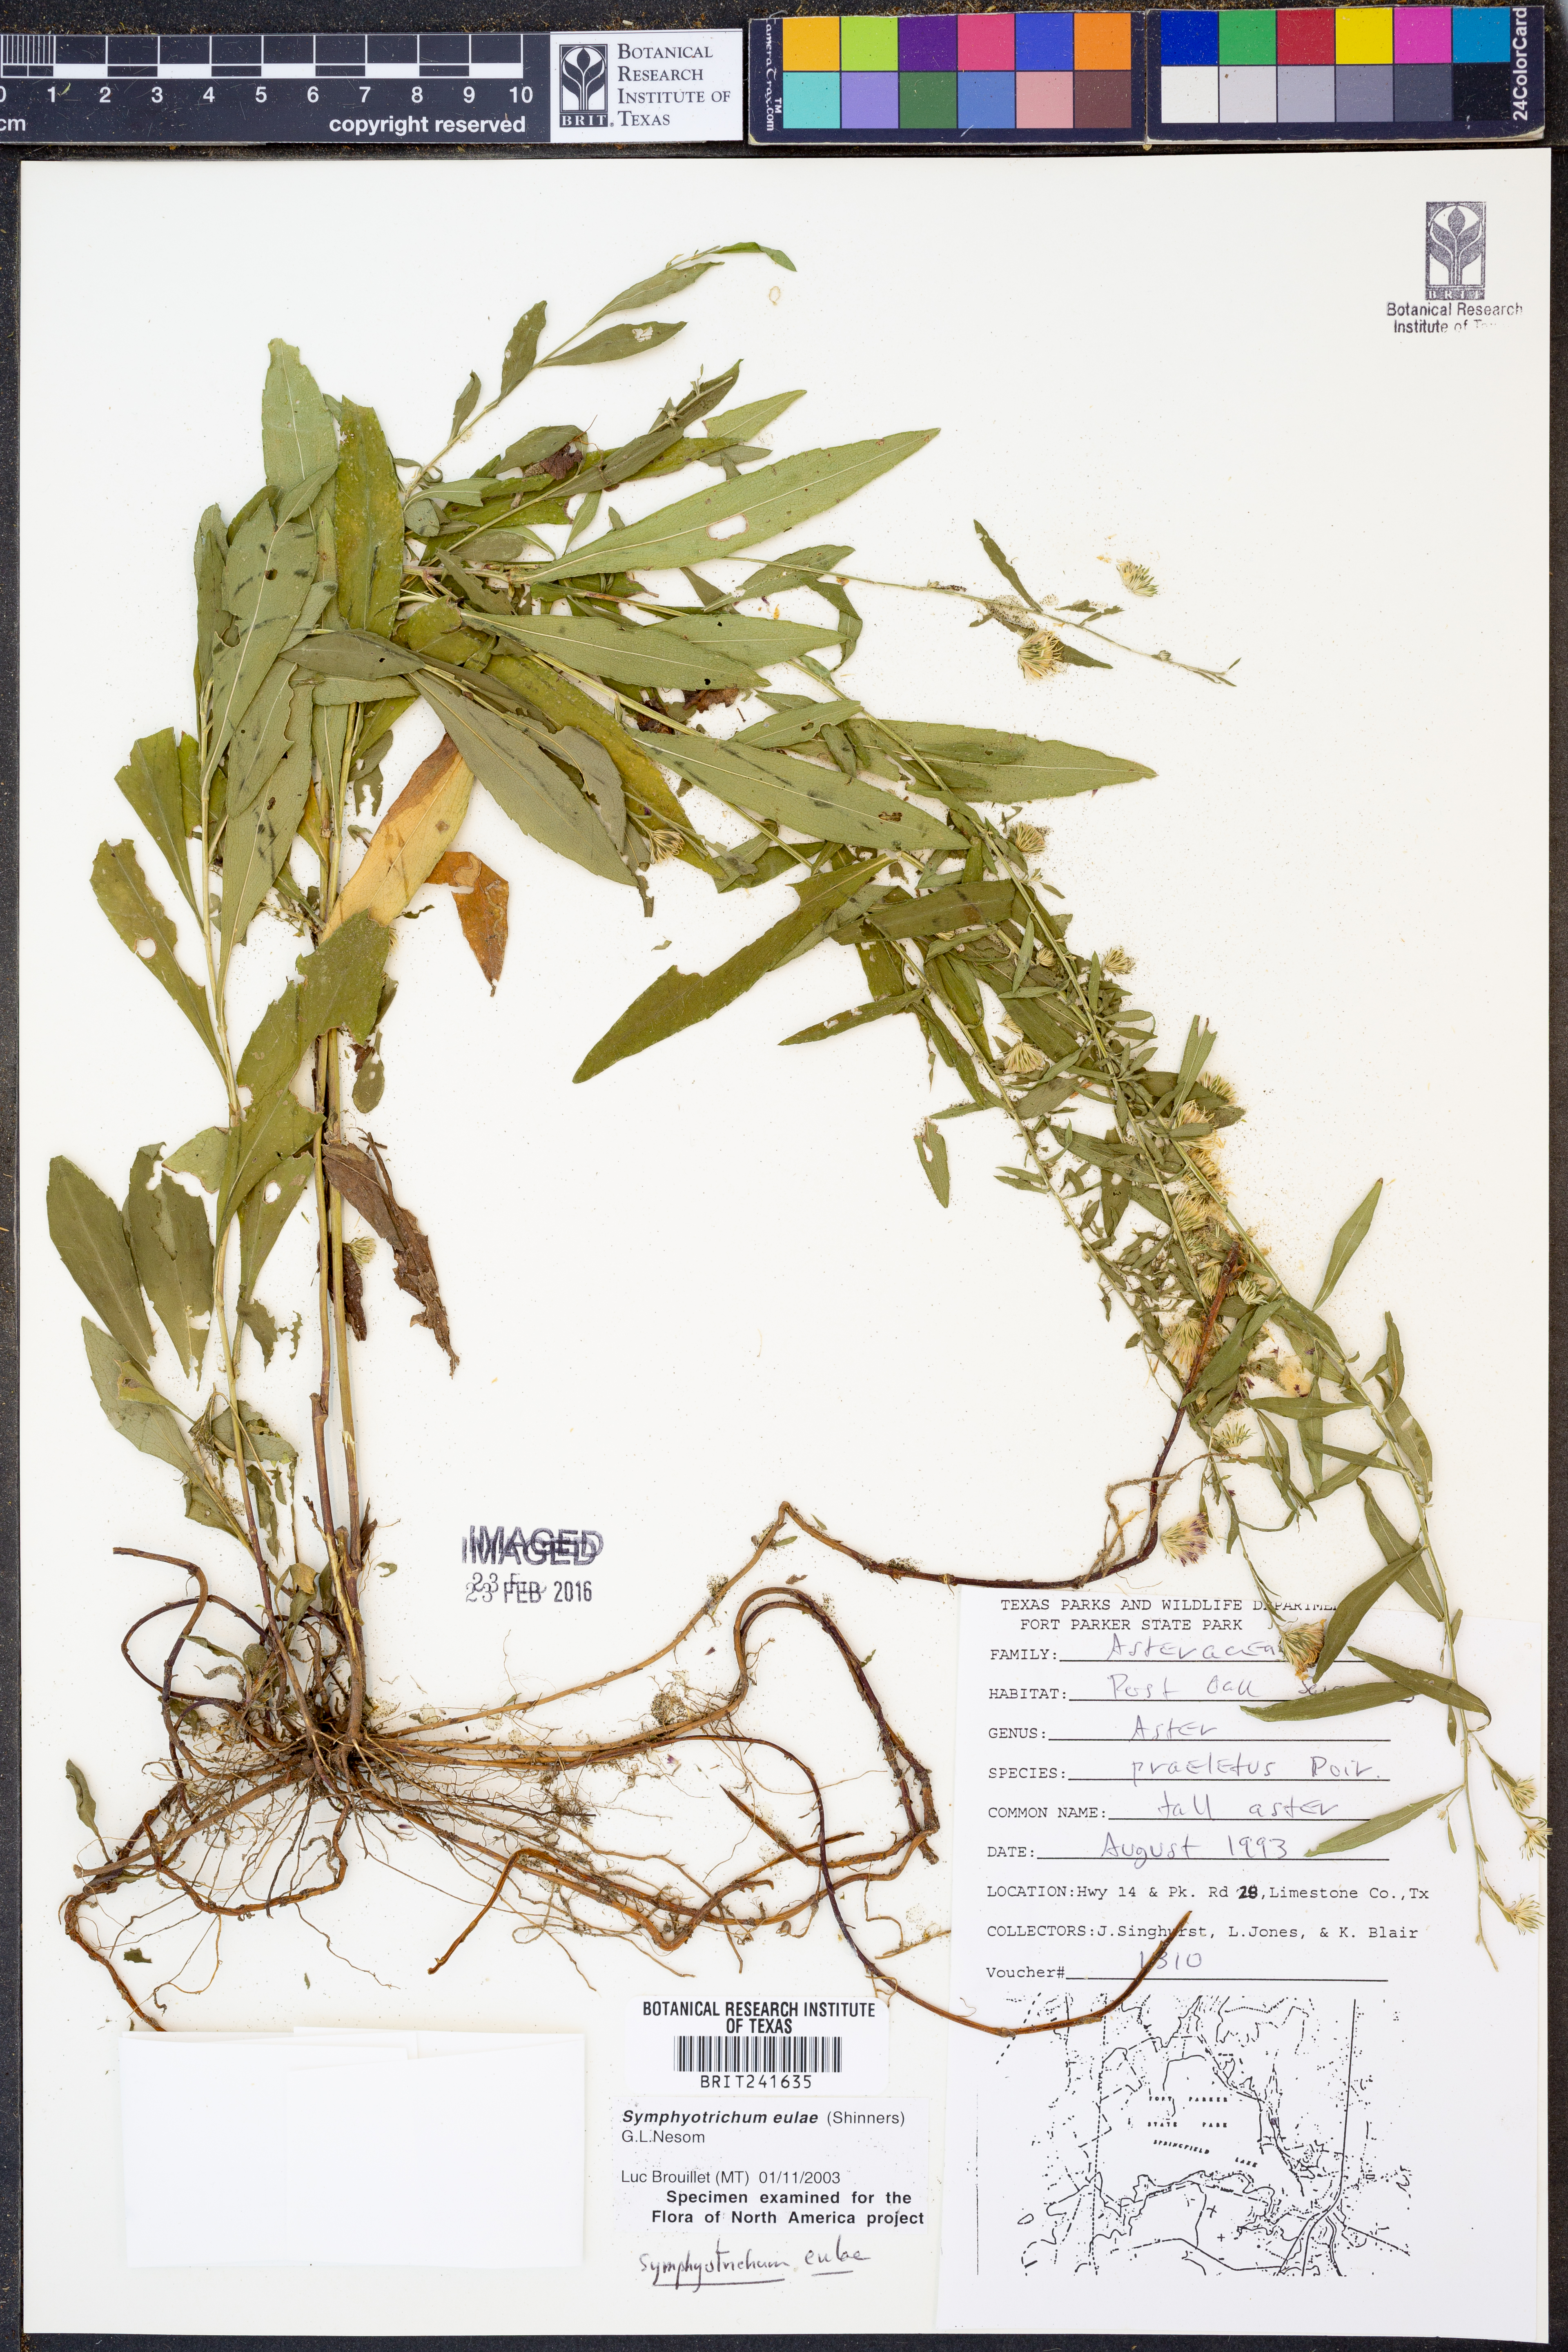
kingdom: Plantae
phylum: Tracheophyta
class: Magnoliopsida
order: Asterales
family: Asteraceae
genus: Symphyotrichum
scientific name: Symphyotrichum eulae
